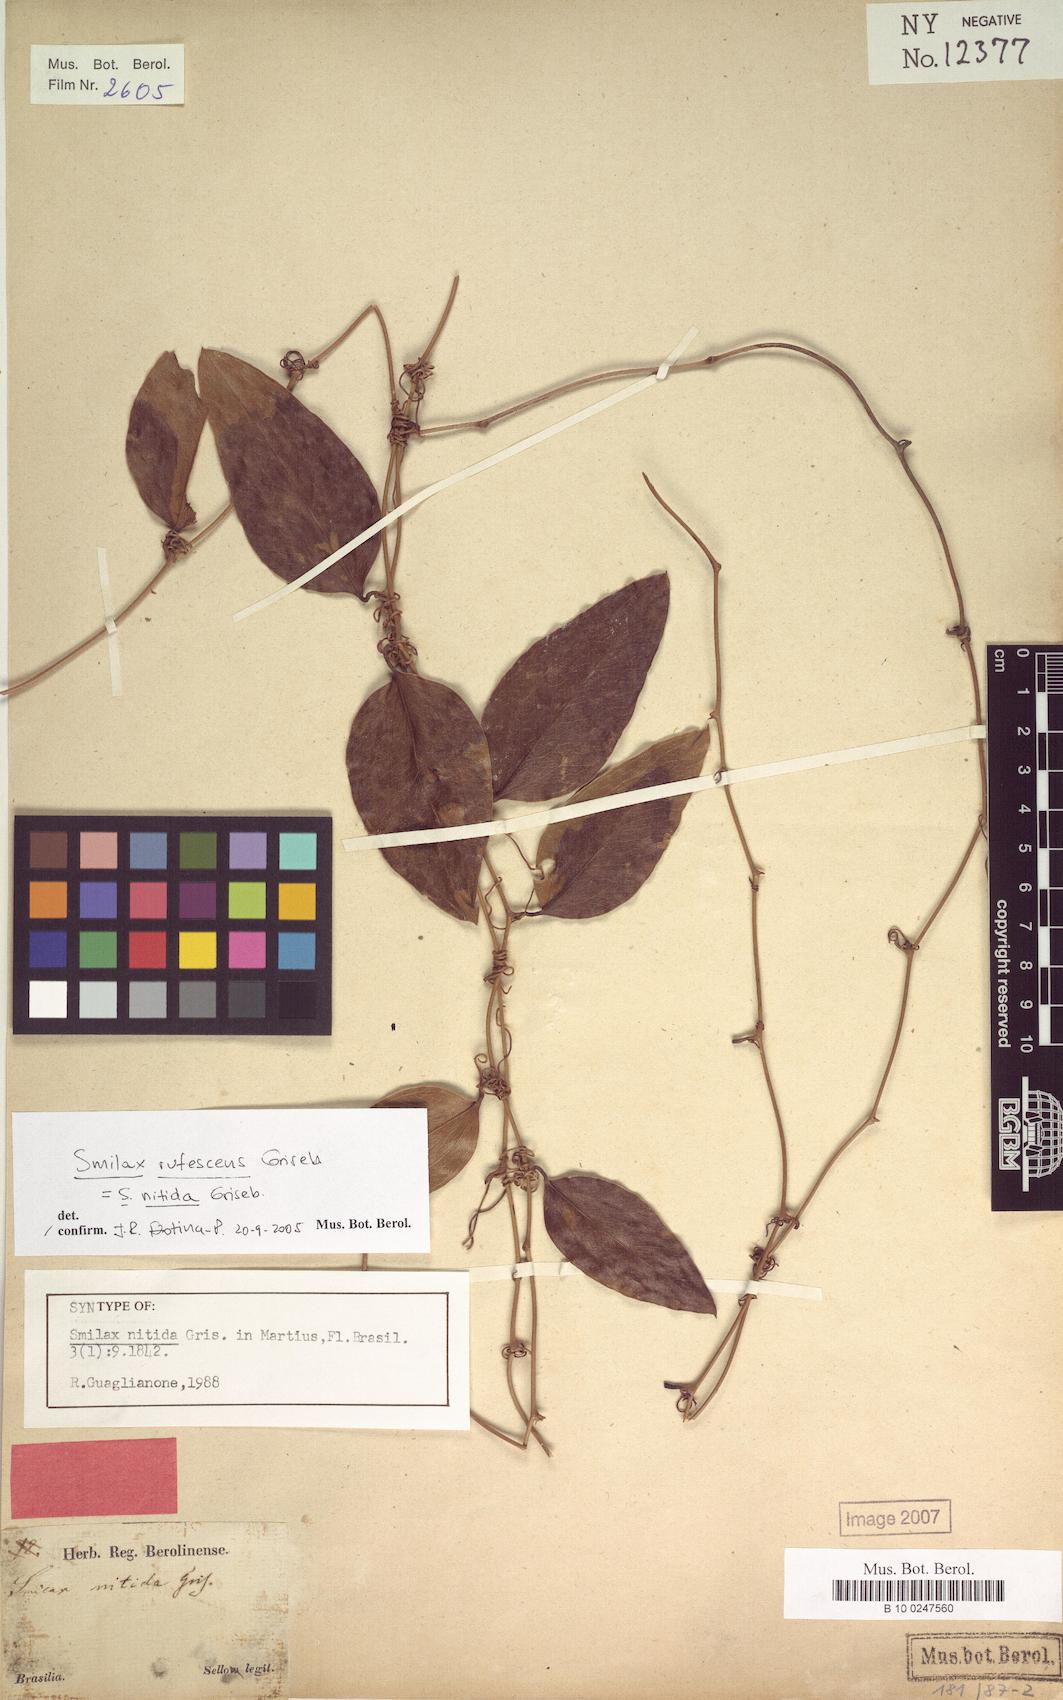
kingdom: Plantae
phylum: Tracheophyta
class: Liliopsida
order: Liliales
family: Smilacaceae
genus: Smilax
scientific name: Smilax rufescens
